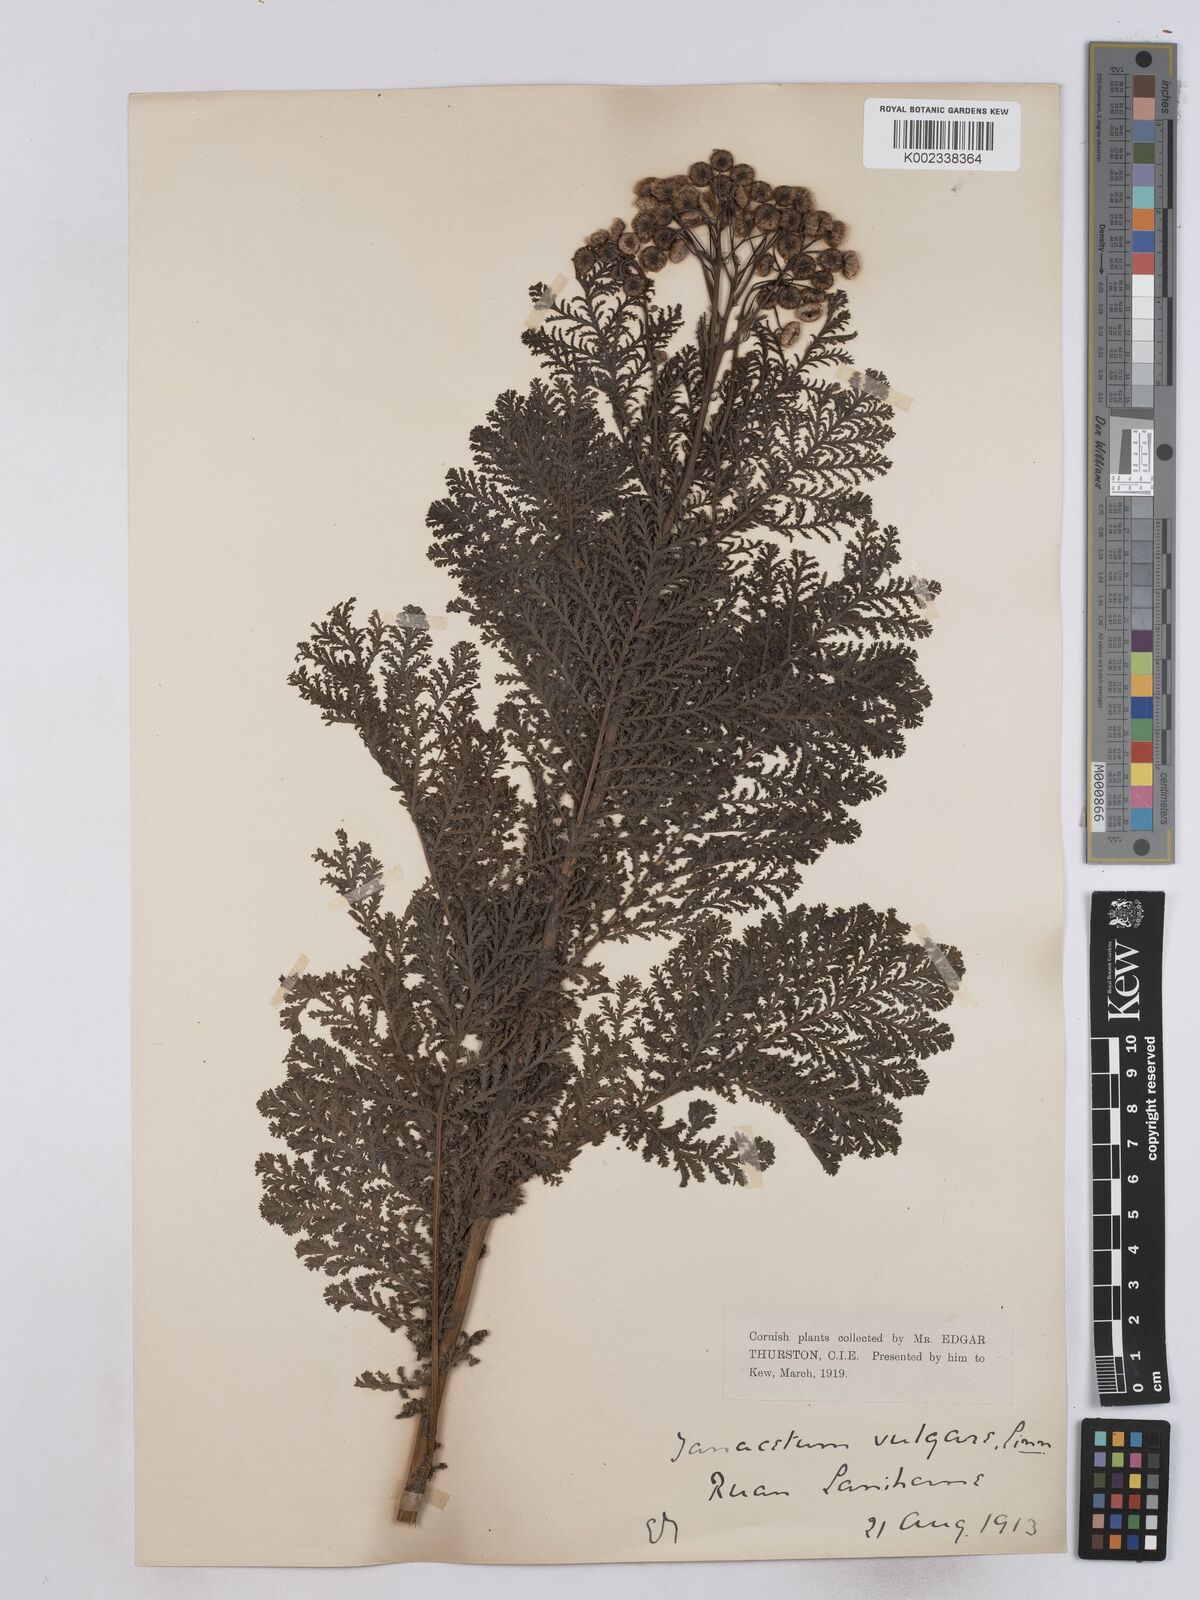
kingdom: Plantae
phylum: Tracheophyta
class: Magnoliopsida
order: Asterales
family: Asteraceae
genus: Tanacetum
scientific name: Tanacetum vulgare
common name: Common tansy
